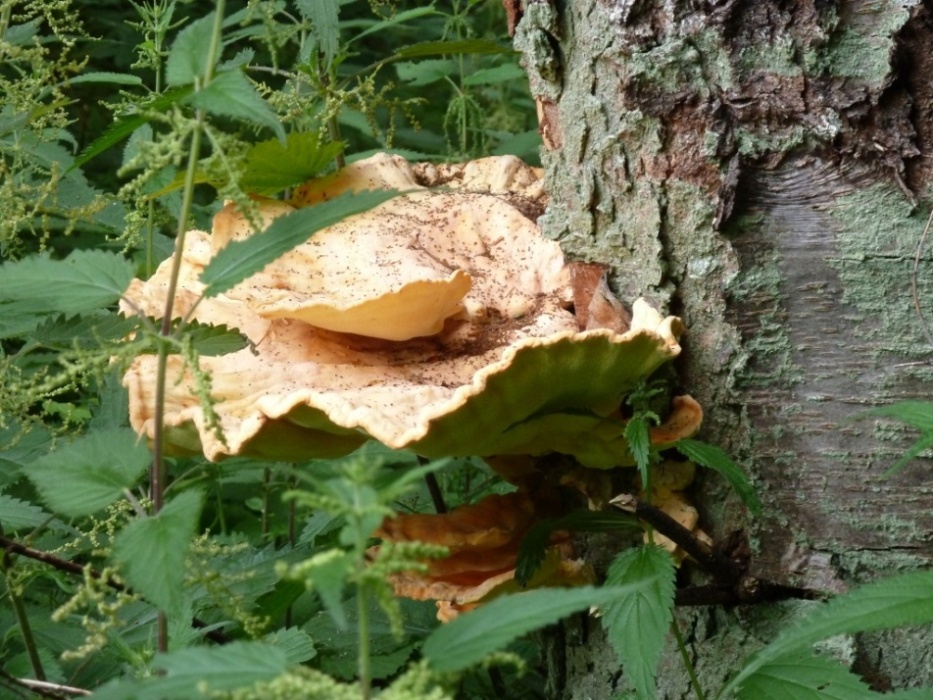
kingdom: Fungi
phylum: Basidiomycota
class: Agaricomycetes
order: Polyporales
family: Laetiporaceae
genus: Laetiporus
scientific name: Laetiporus sulphureus
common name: svovlporesvamp
